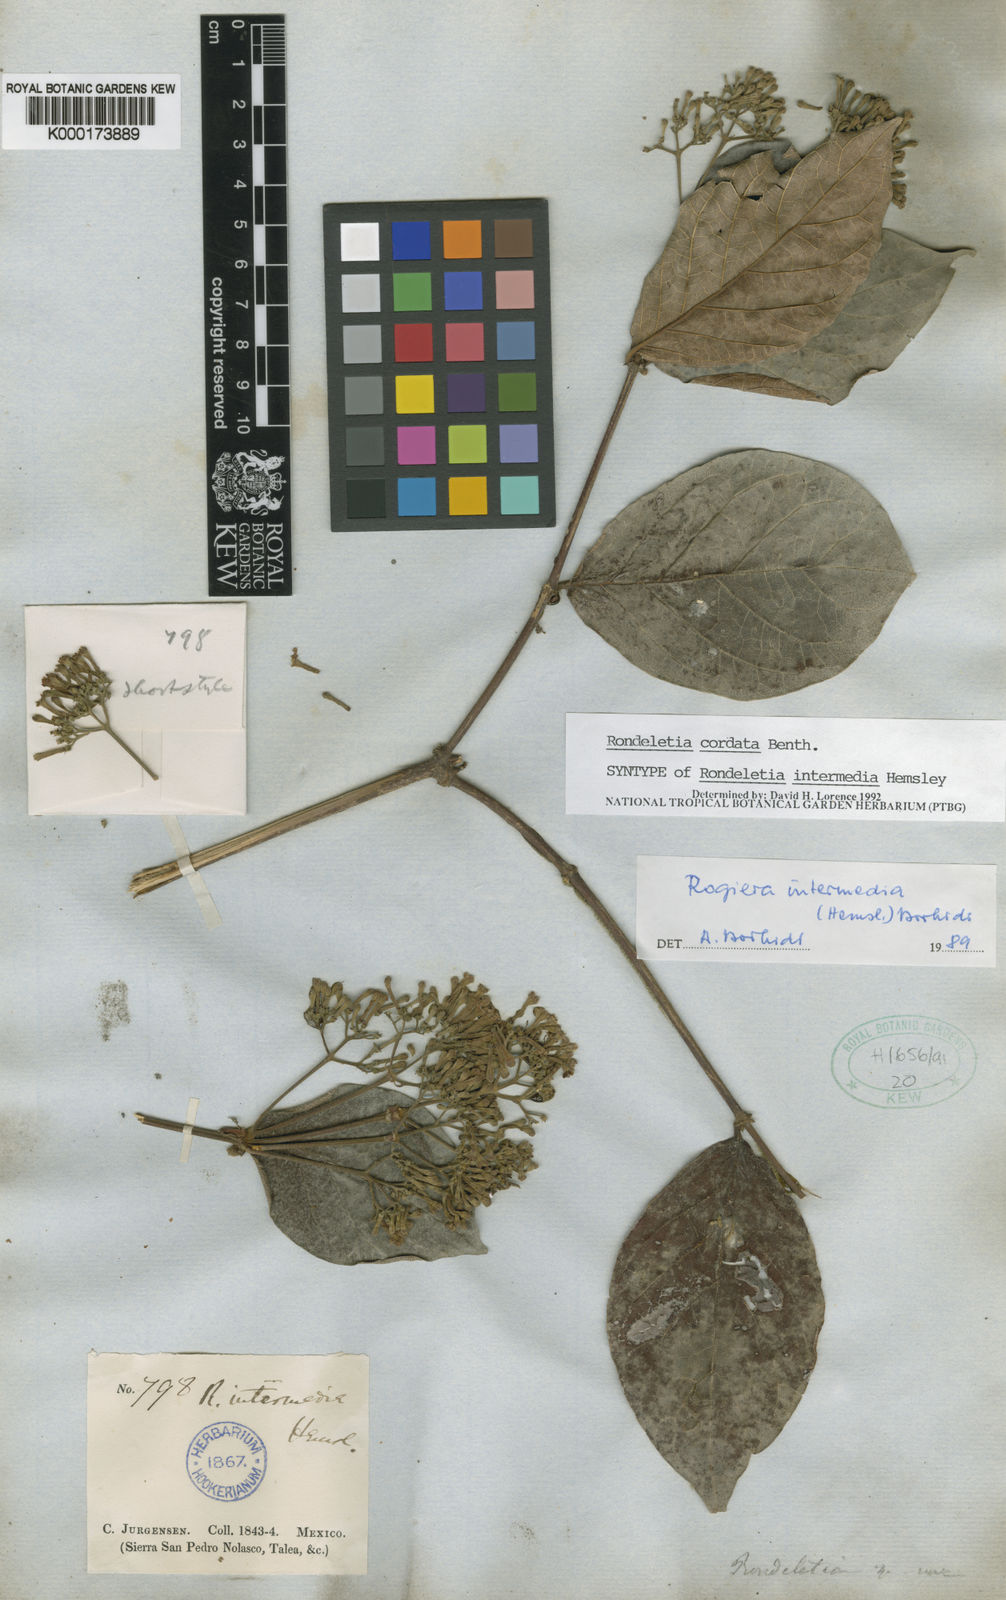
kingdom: Plantae
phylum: Tracheophyta
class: Magnoliopsida
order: Gentianales
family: Rubiaceae
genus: Rogiera
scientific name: Rogiera cordata
